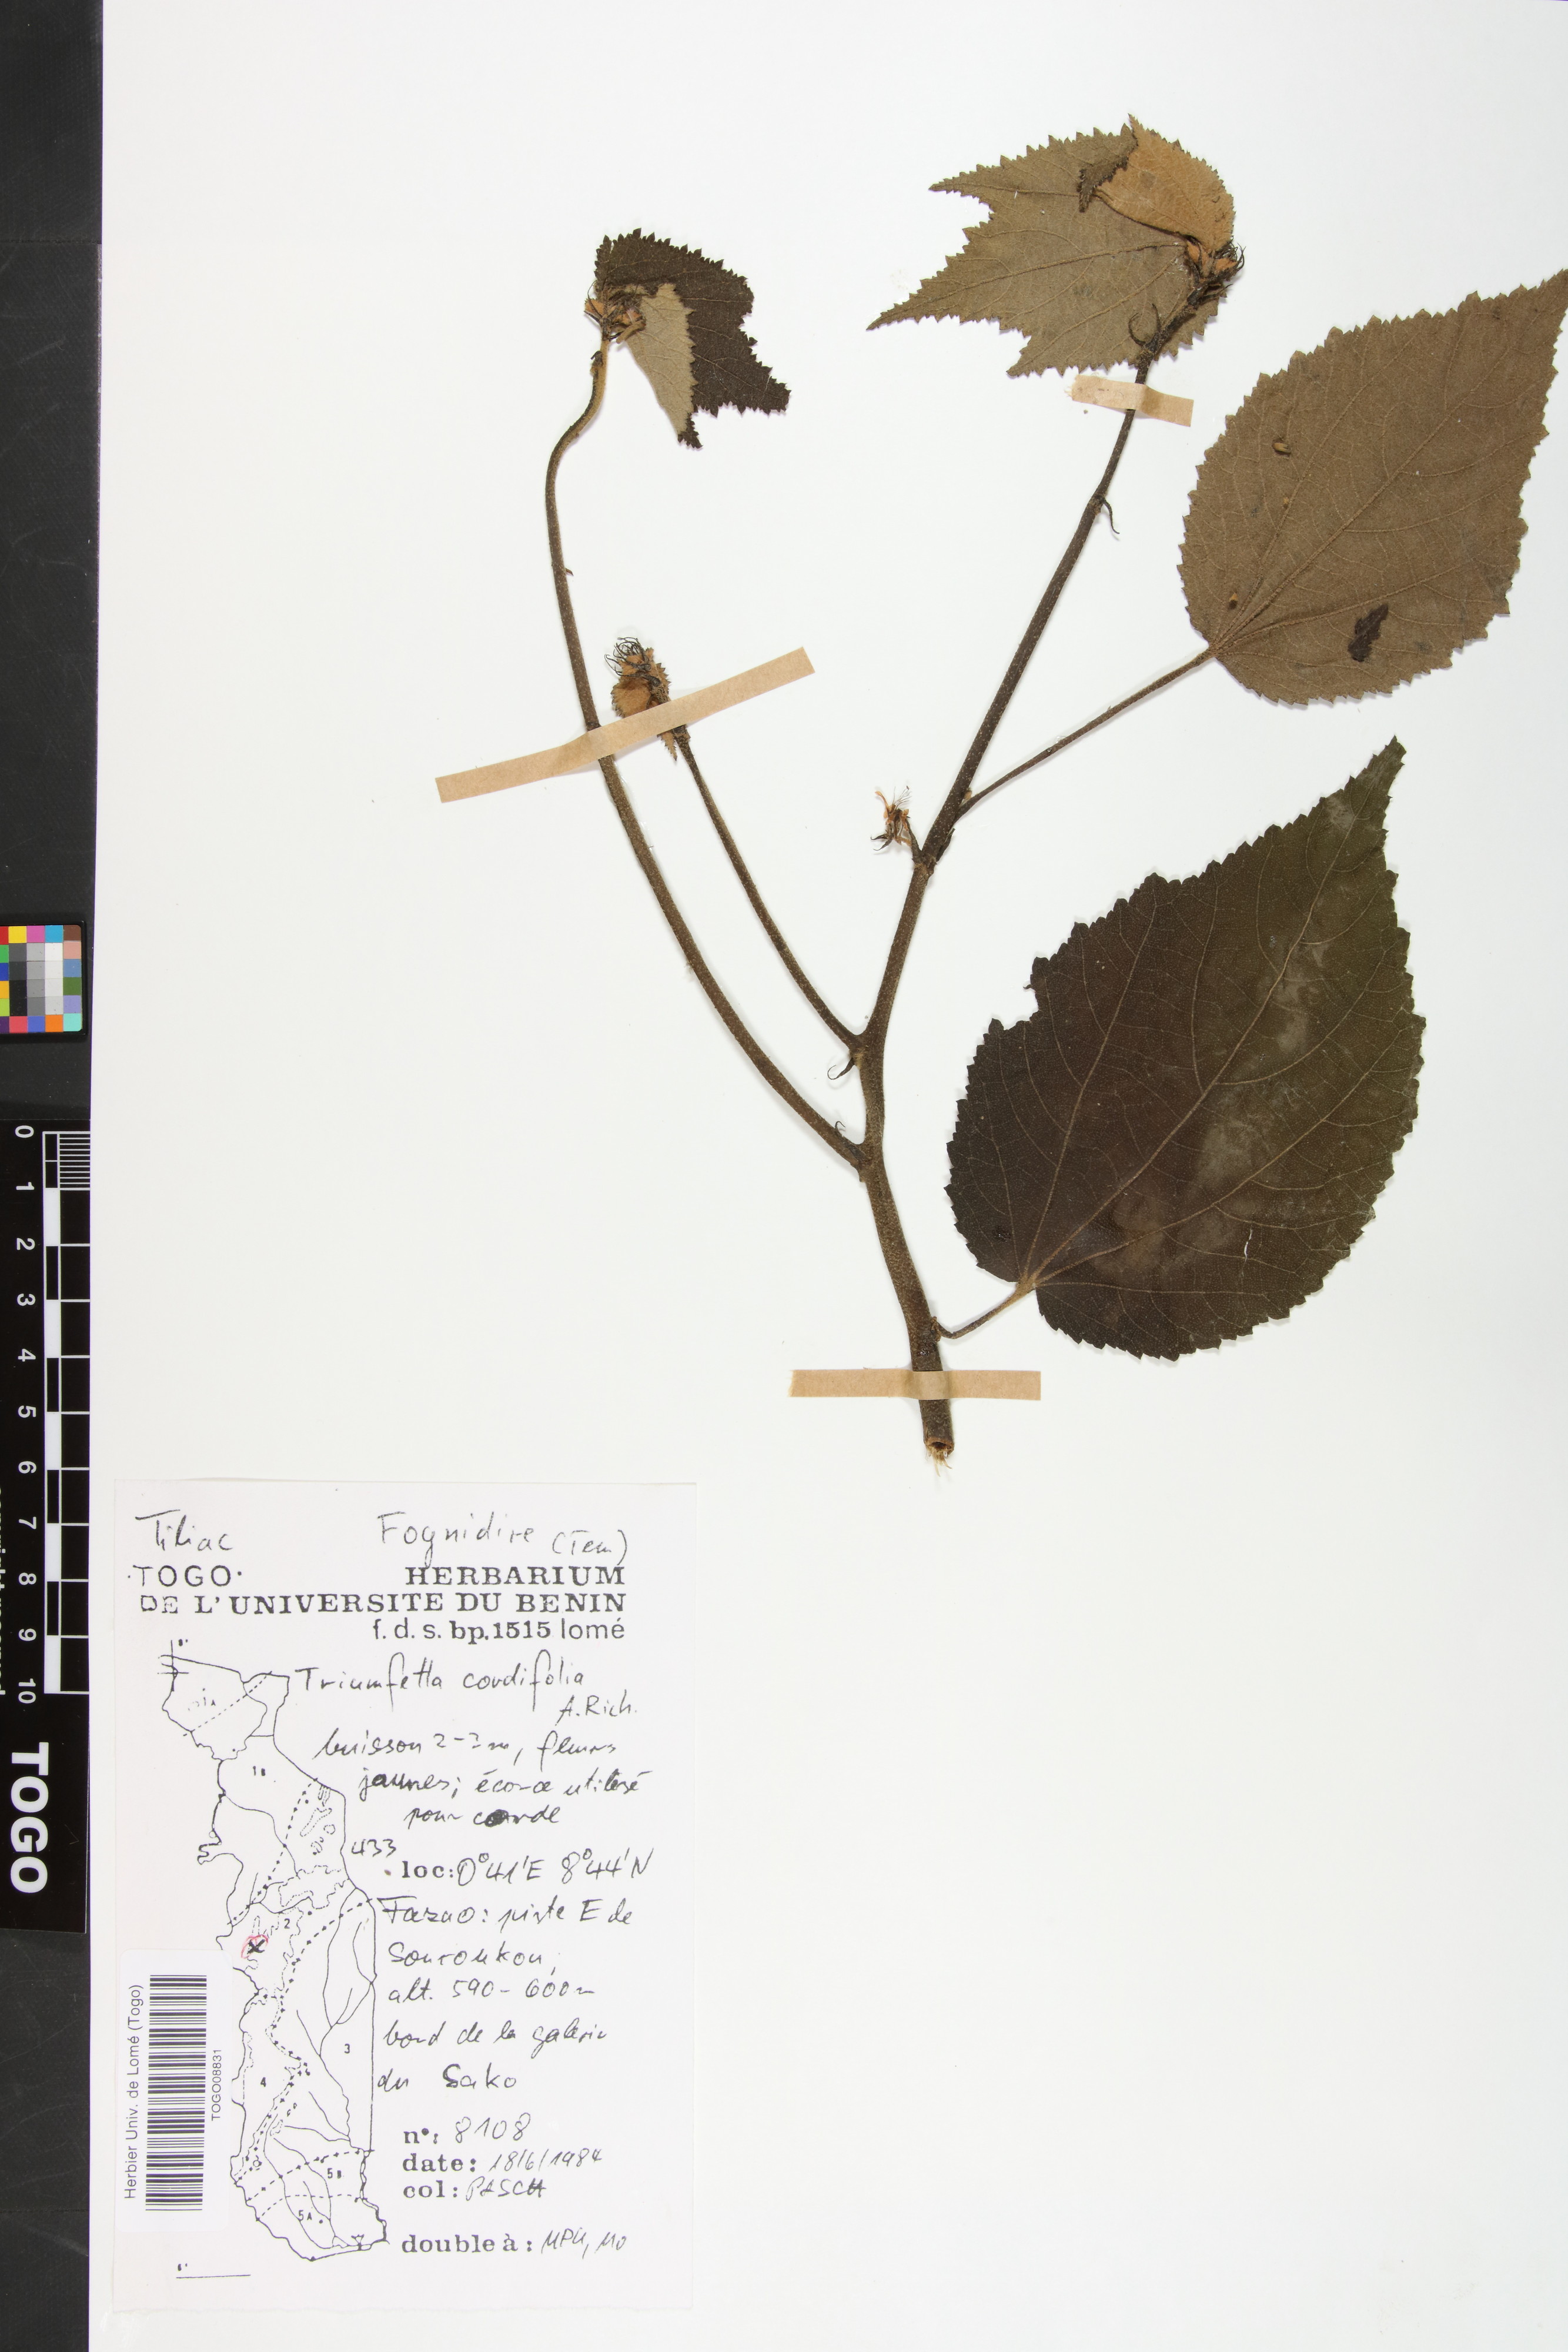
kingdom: Plantae
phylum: Tracheophyta
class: Magnoliopsida
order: Malvales
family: Malvaceae
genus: Triumfetta
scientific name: Triumfetta cordifolia
